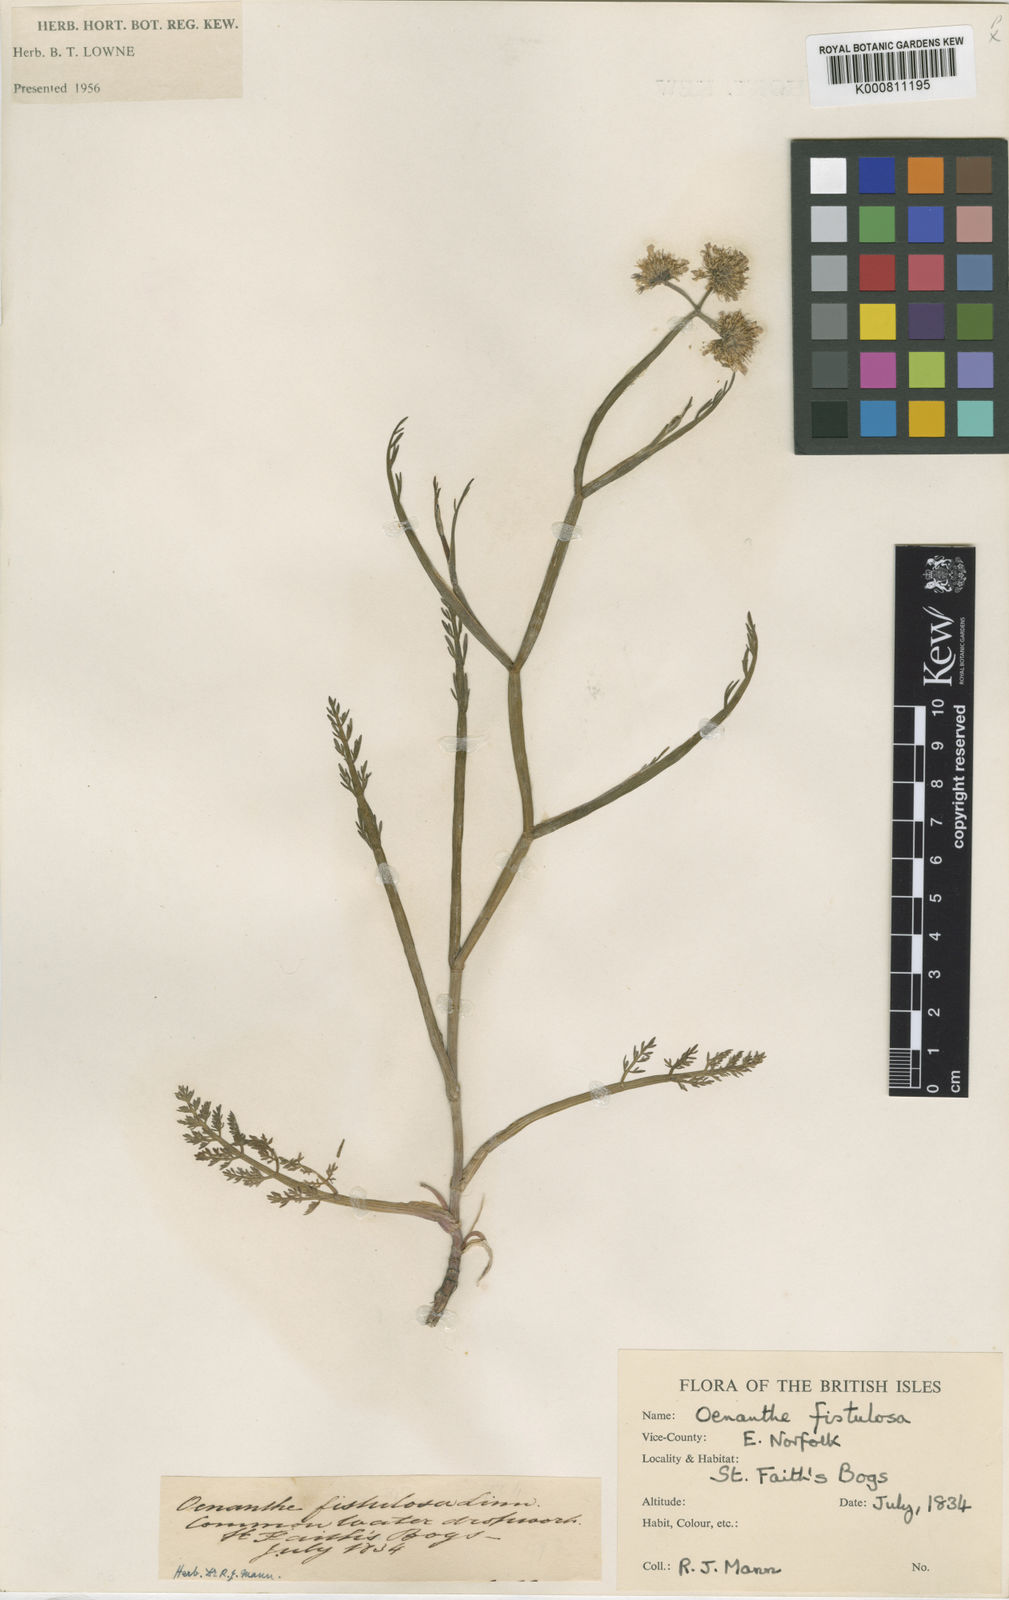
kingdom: Plantae
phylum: Tracheophyta
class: Magnoliopsida
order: Apiales
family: Apiaceae
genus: Oenanthe
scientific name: Oenanthe fistulosa
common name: Tubular water-dropwort
